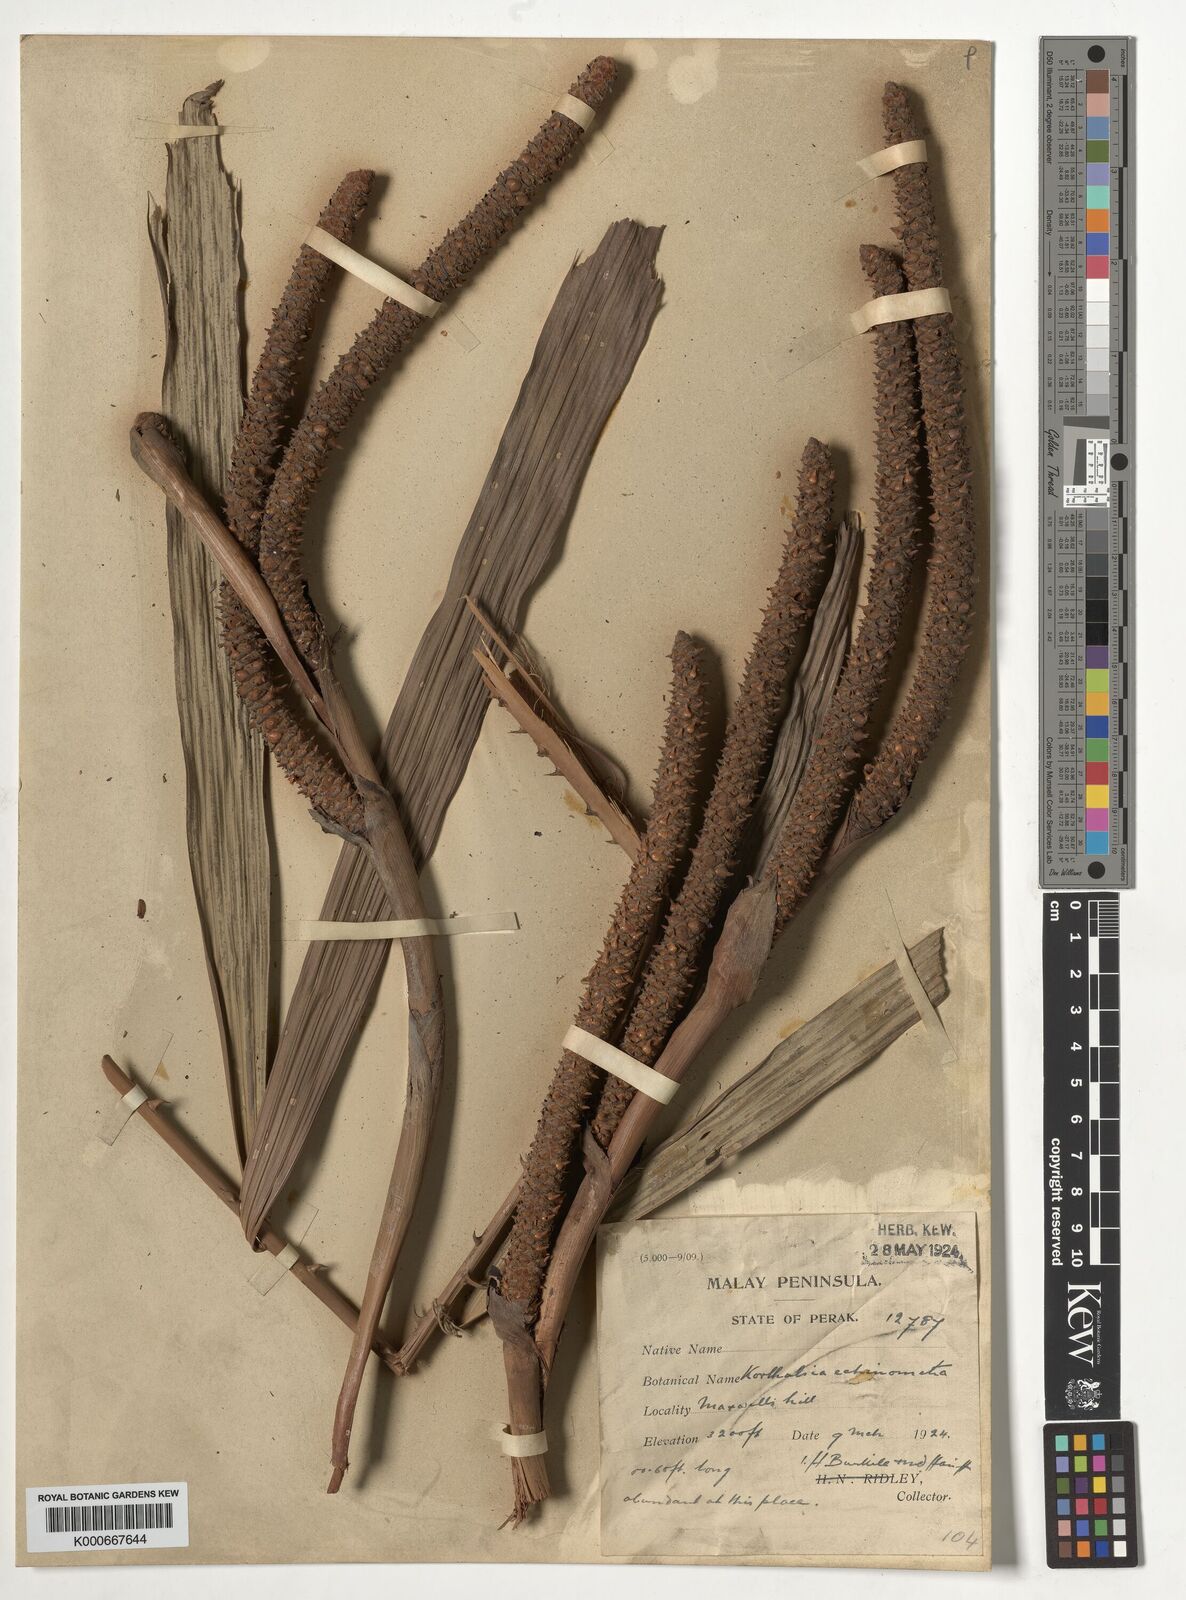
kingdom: Plantae
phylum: Tracheophyta
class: Liliopsida
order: Arecales
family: Arecaceae
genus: Korthalsia
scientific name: Korthalsia echinometra
